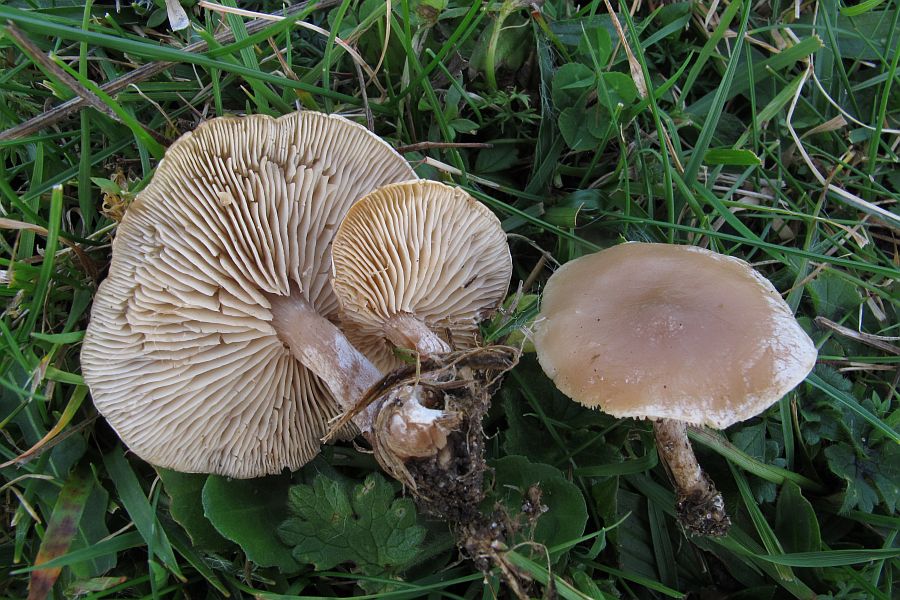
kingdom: Fungi
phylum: Basidiomycota
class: Agaricomycetes
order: Agaricales
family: Tricholomataceae
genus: Clitocybe
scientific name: Clitocybe rivulosa
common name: eng-tragthat
